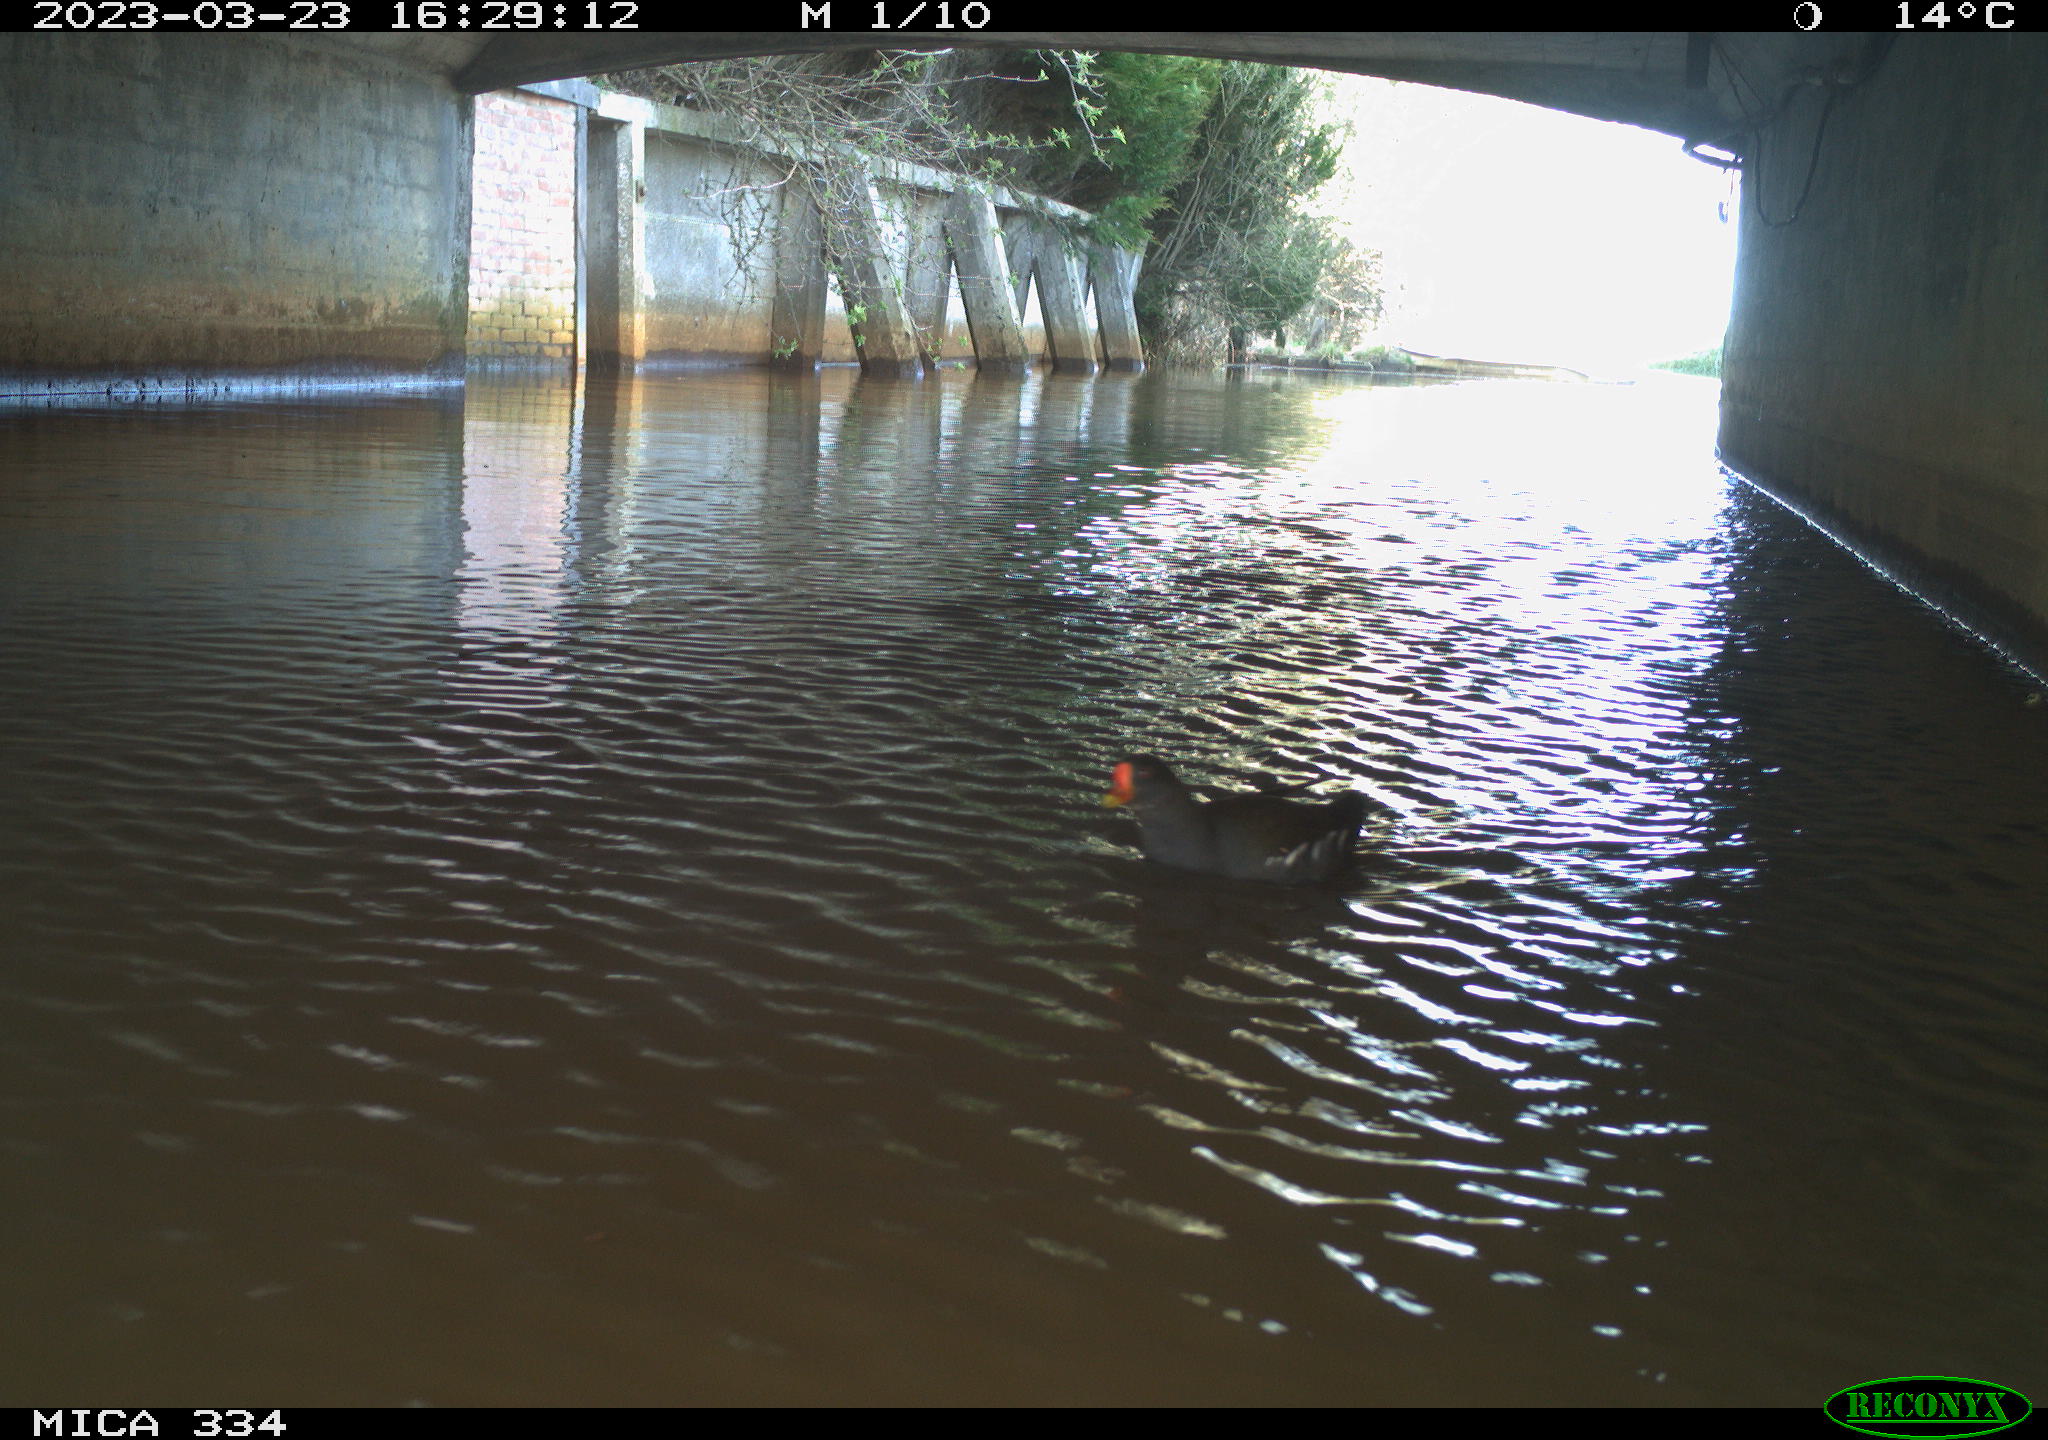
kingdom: Animalia
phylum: Chordata
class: Aves
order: Gruiformes
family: Rallidae
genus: Gallinula
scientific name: Gallinula chloropus
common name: Common moorhen
